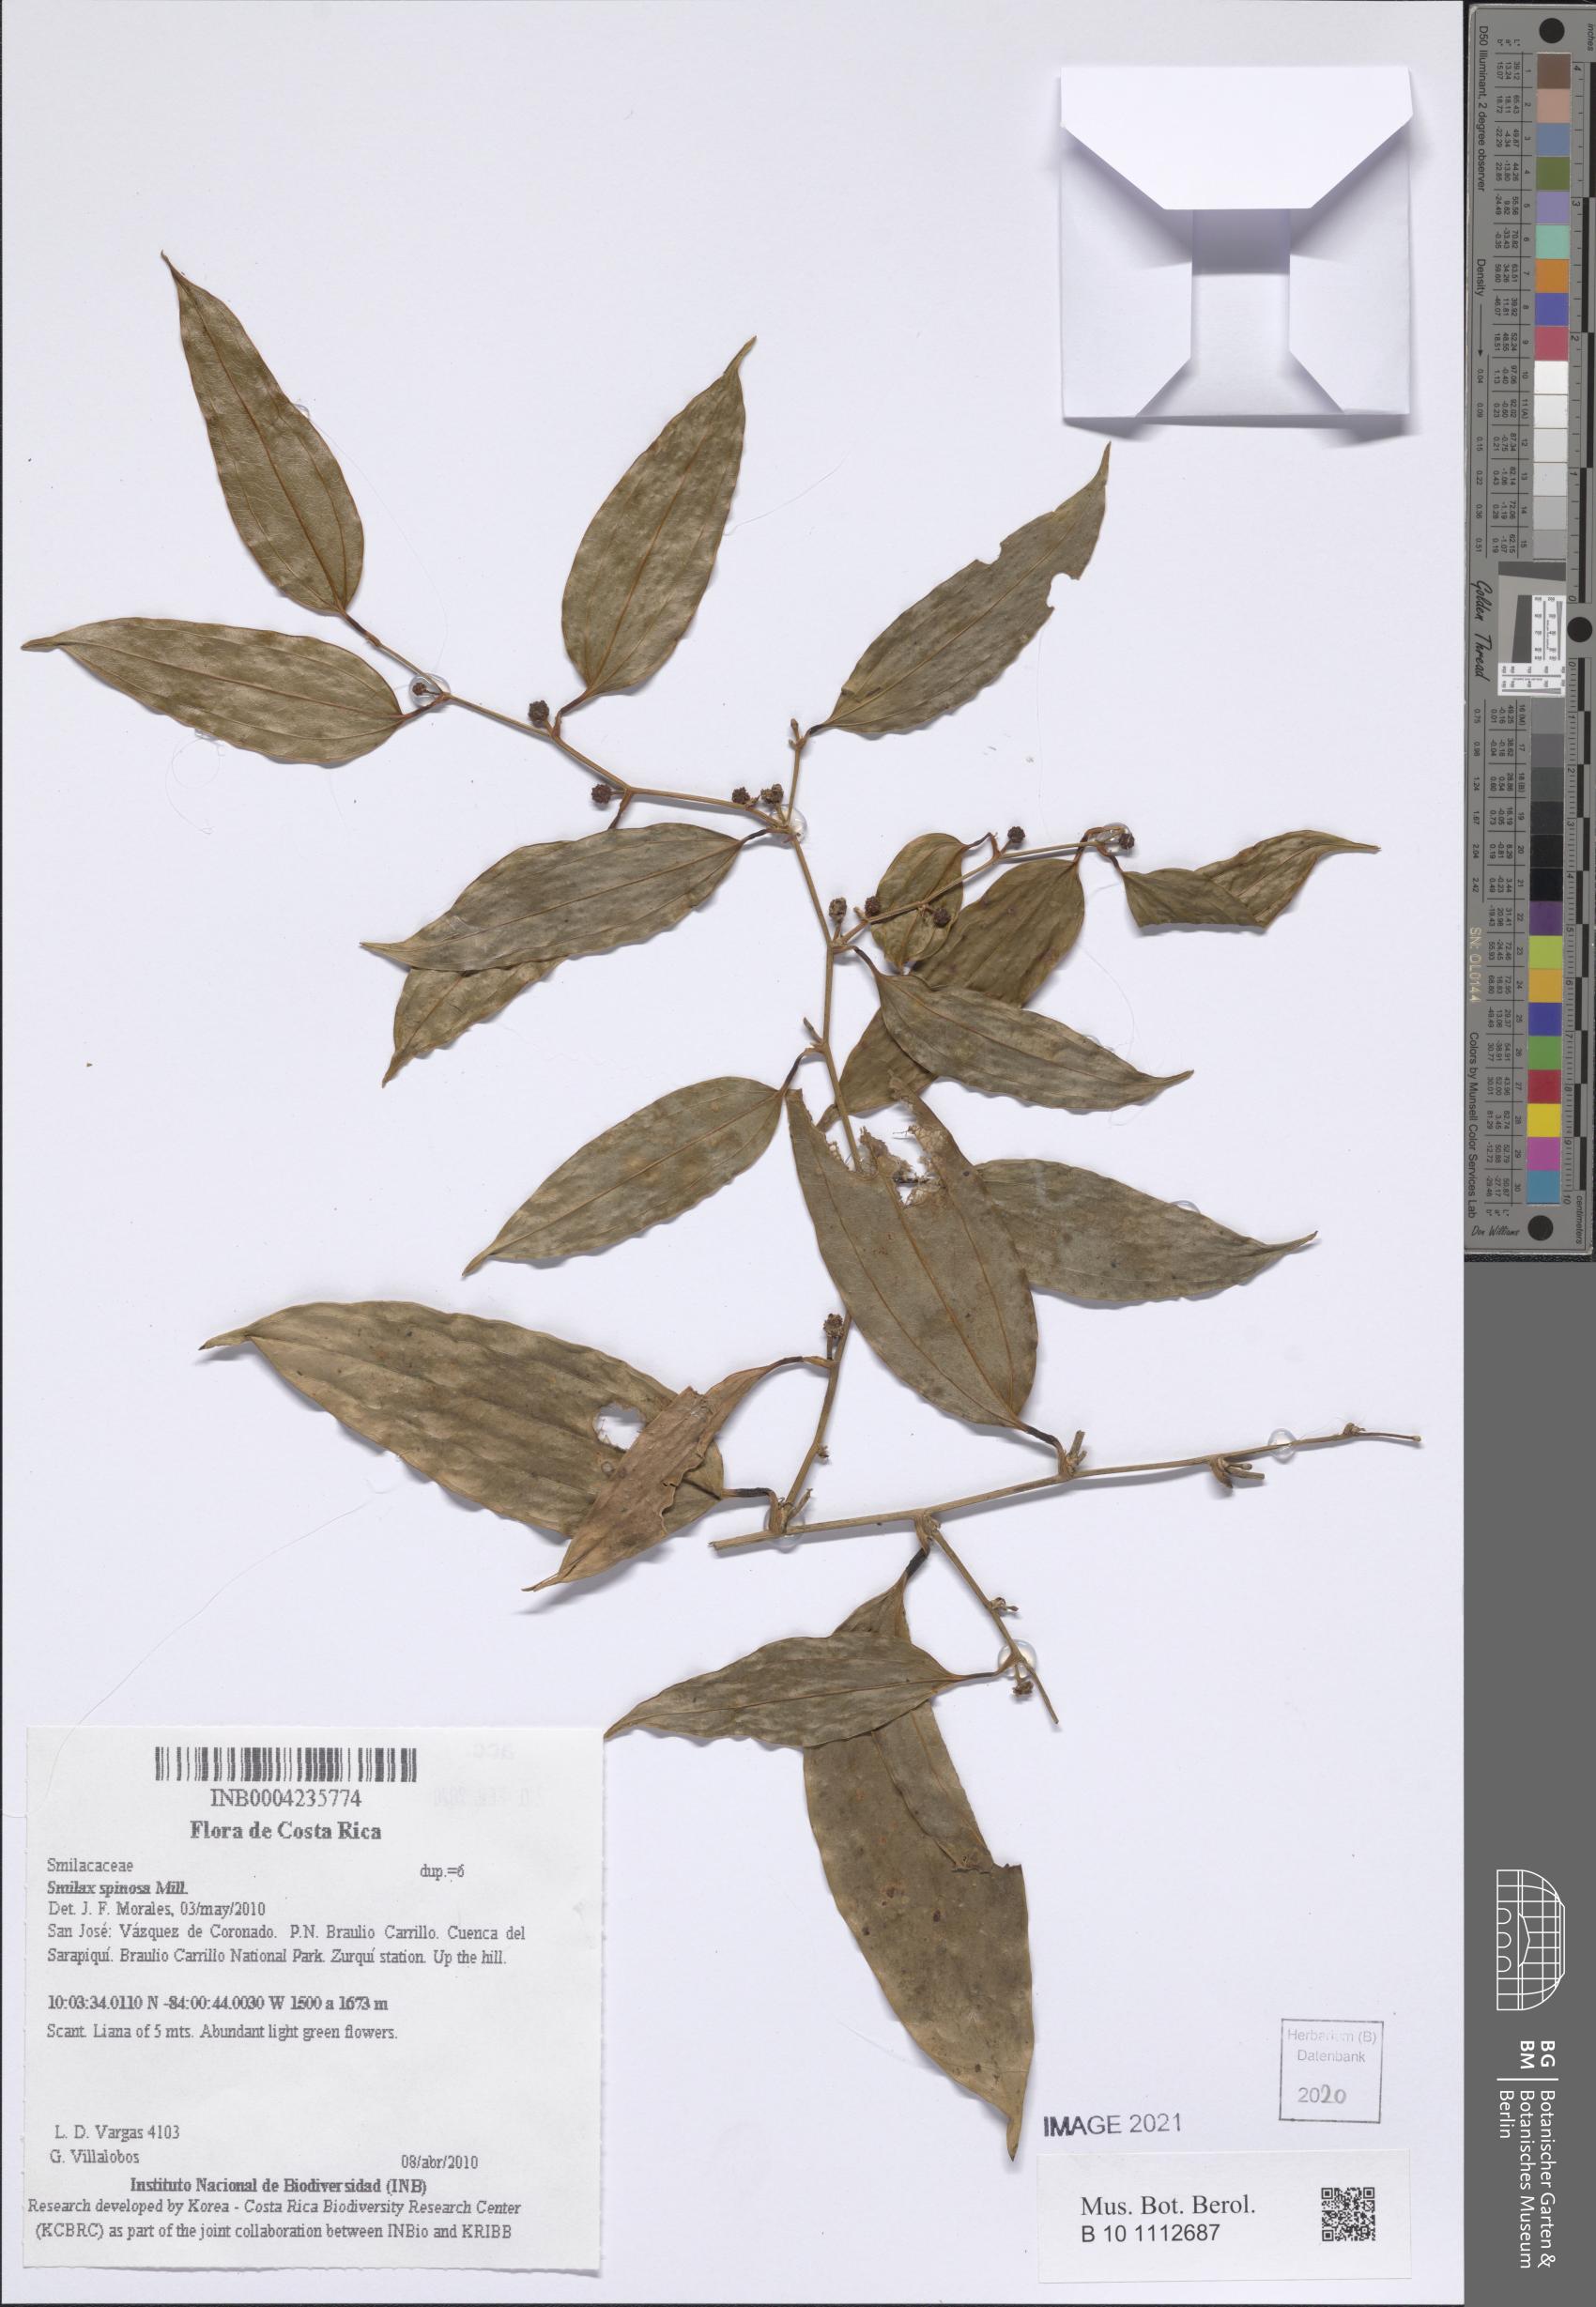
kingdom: Plantae
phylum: Tracheophyta
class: Liliopsida
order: Liliales
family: Smilacaceae
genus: Smilax
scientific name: Smilax spinosa
